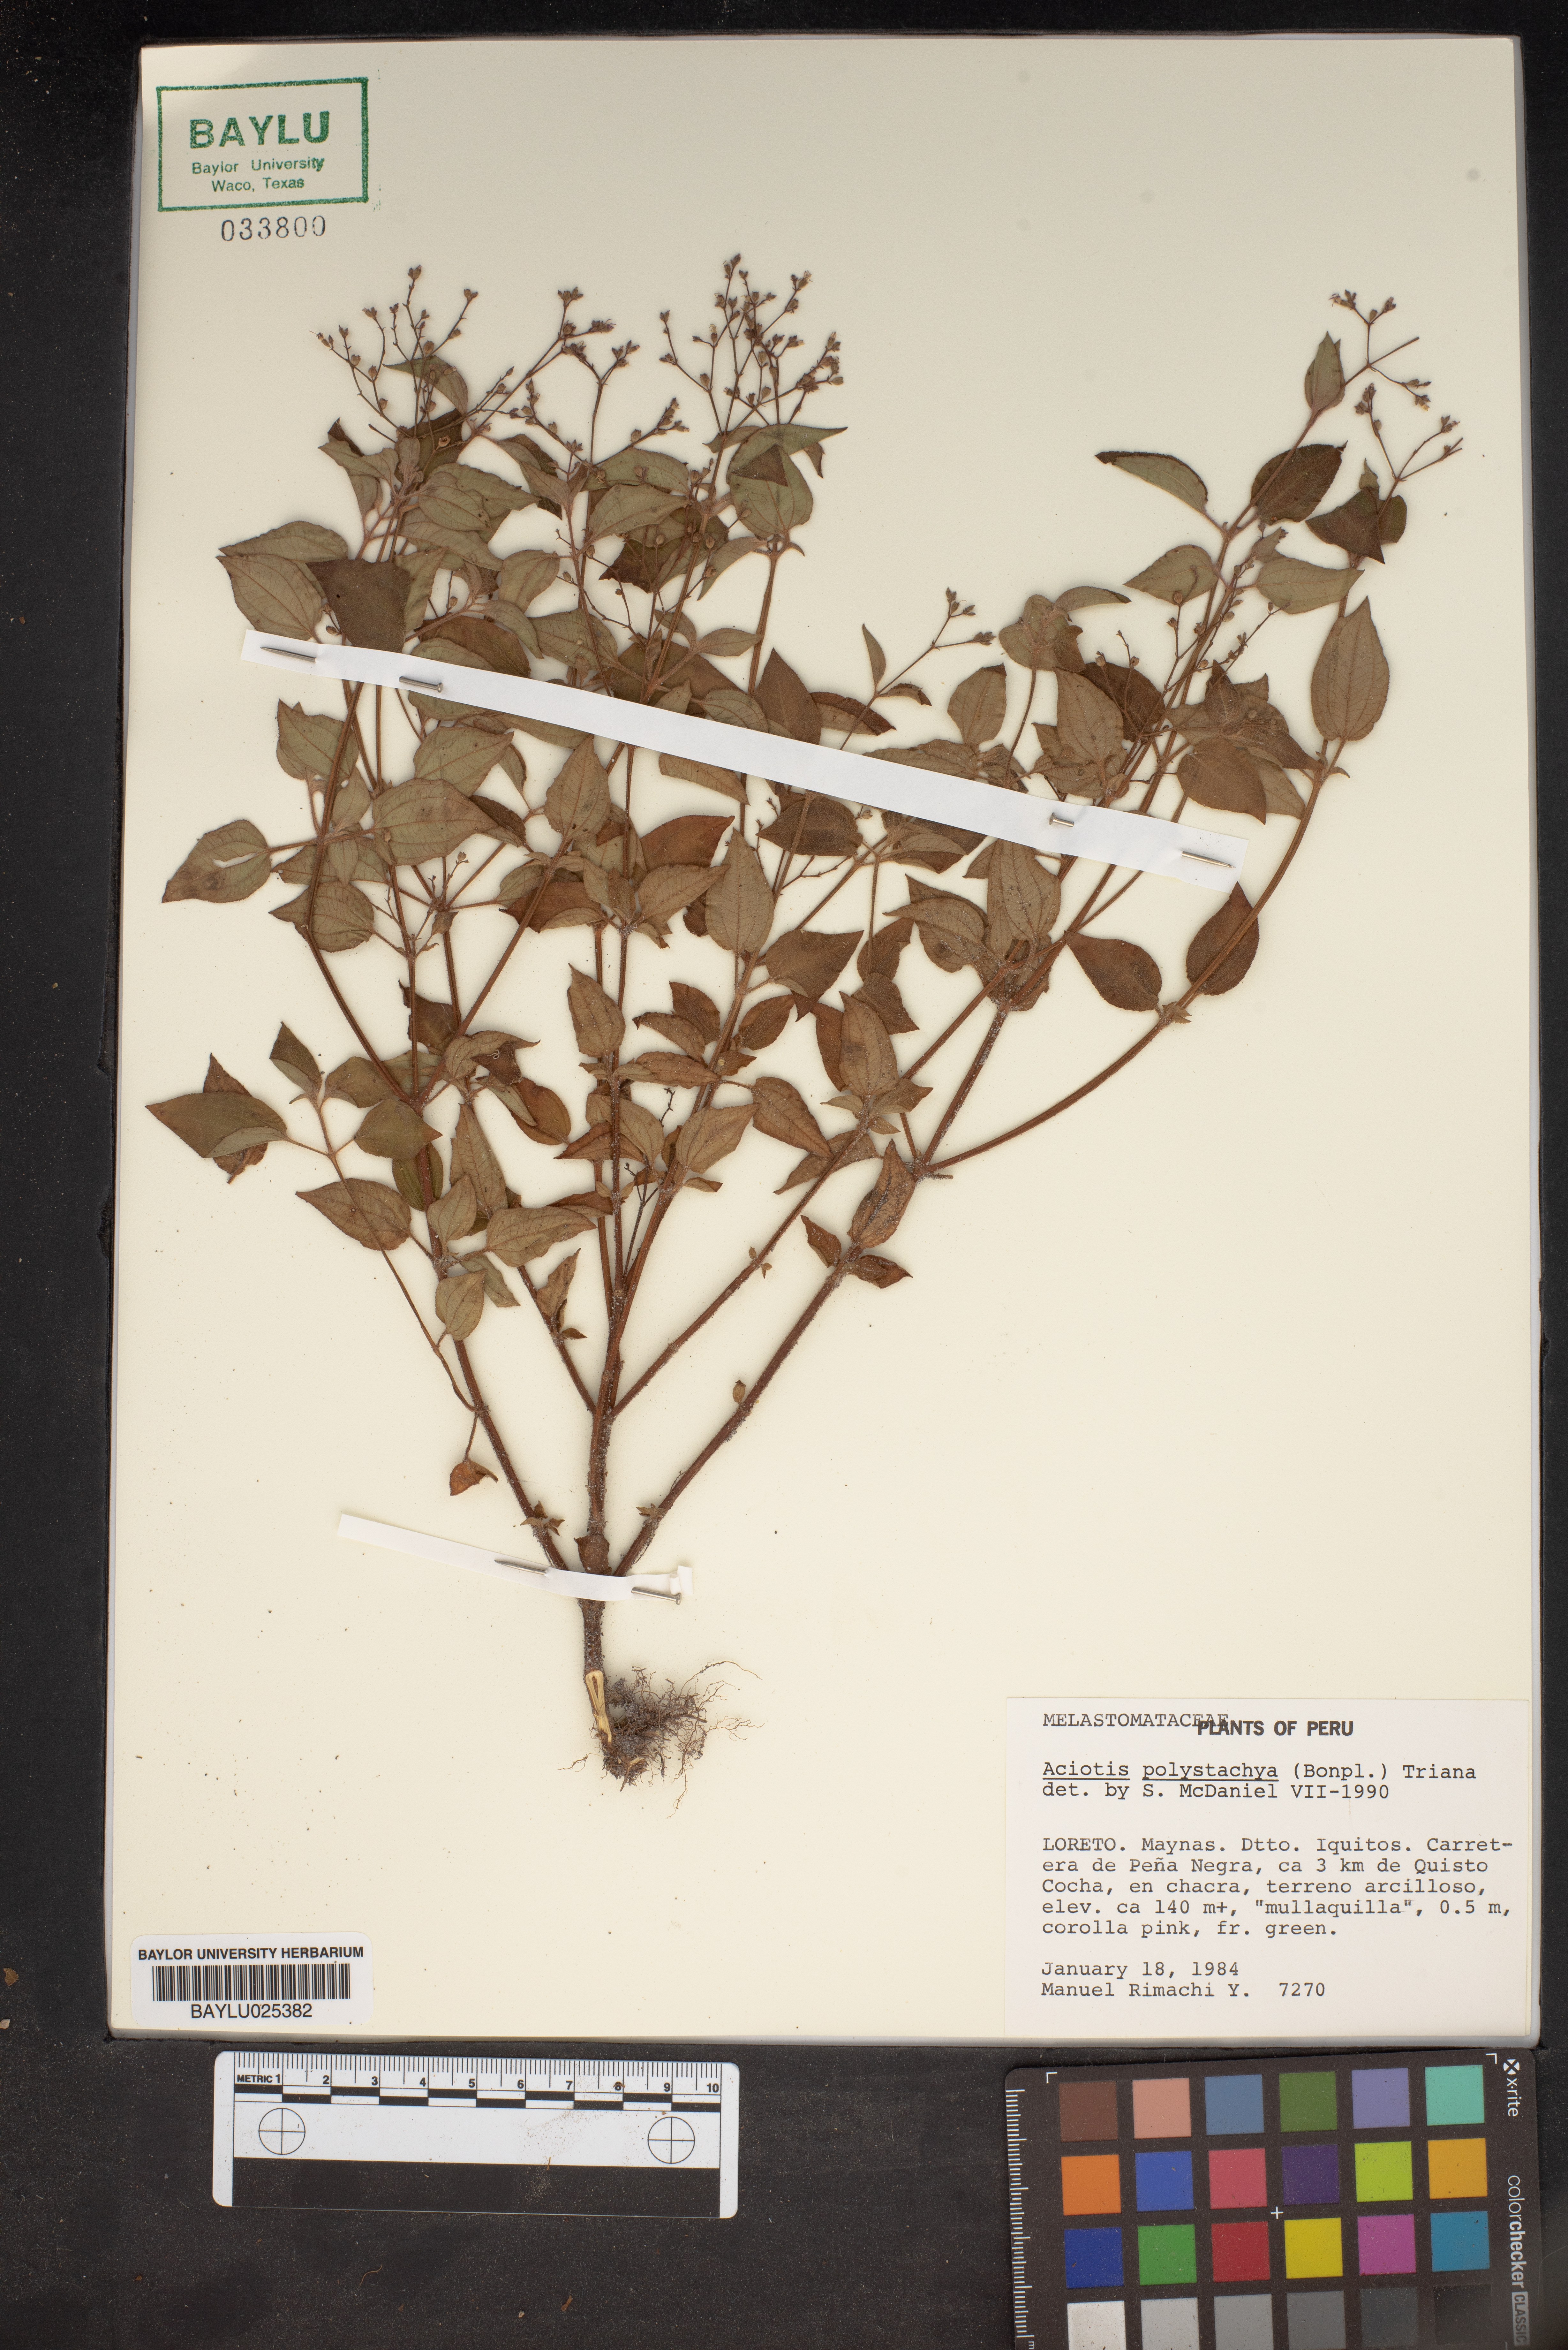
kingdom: Plantae
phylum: Tracheophyta
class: Magnoliopsida
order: Myrtales
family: Melastomataceae
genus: Aciotis
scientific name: Aciotis polystachya
